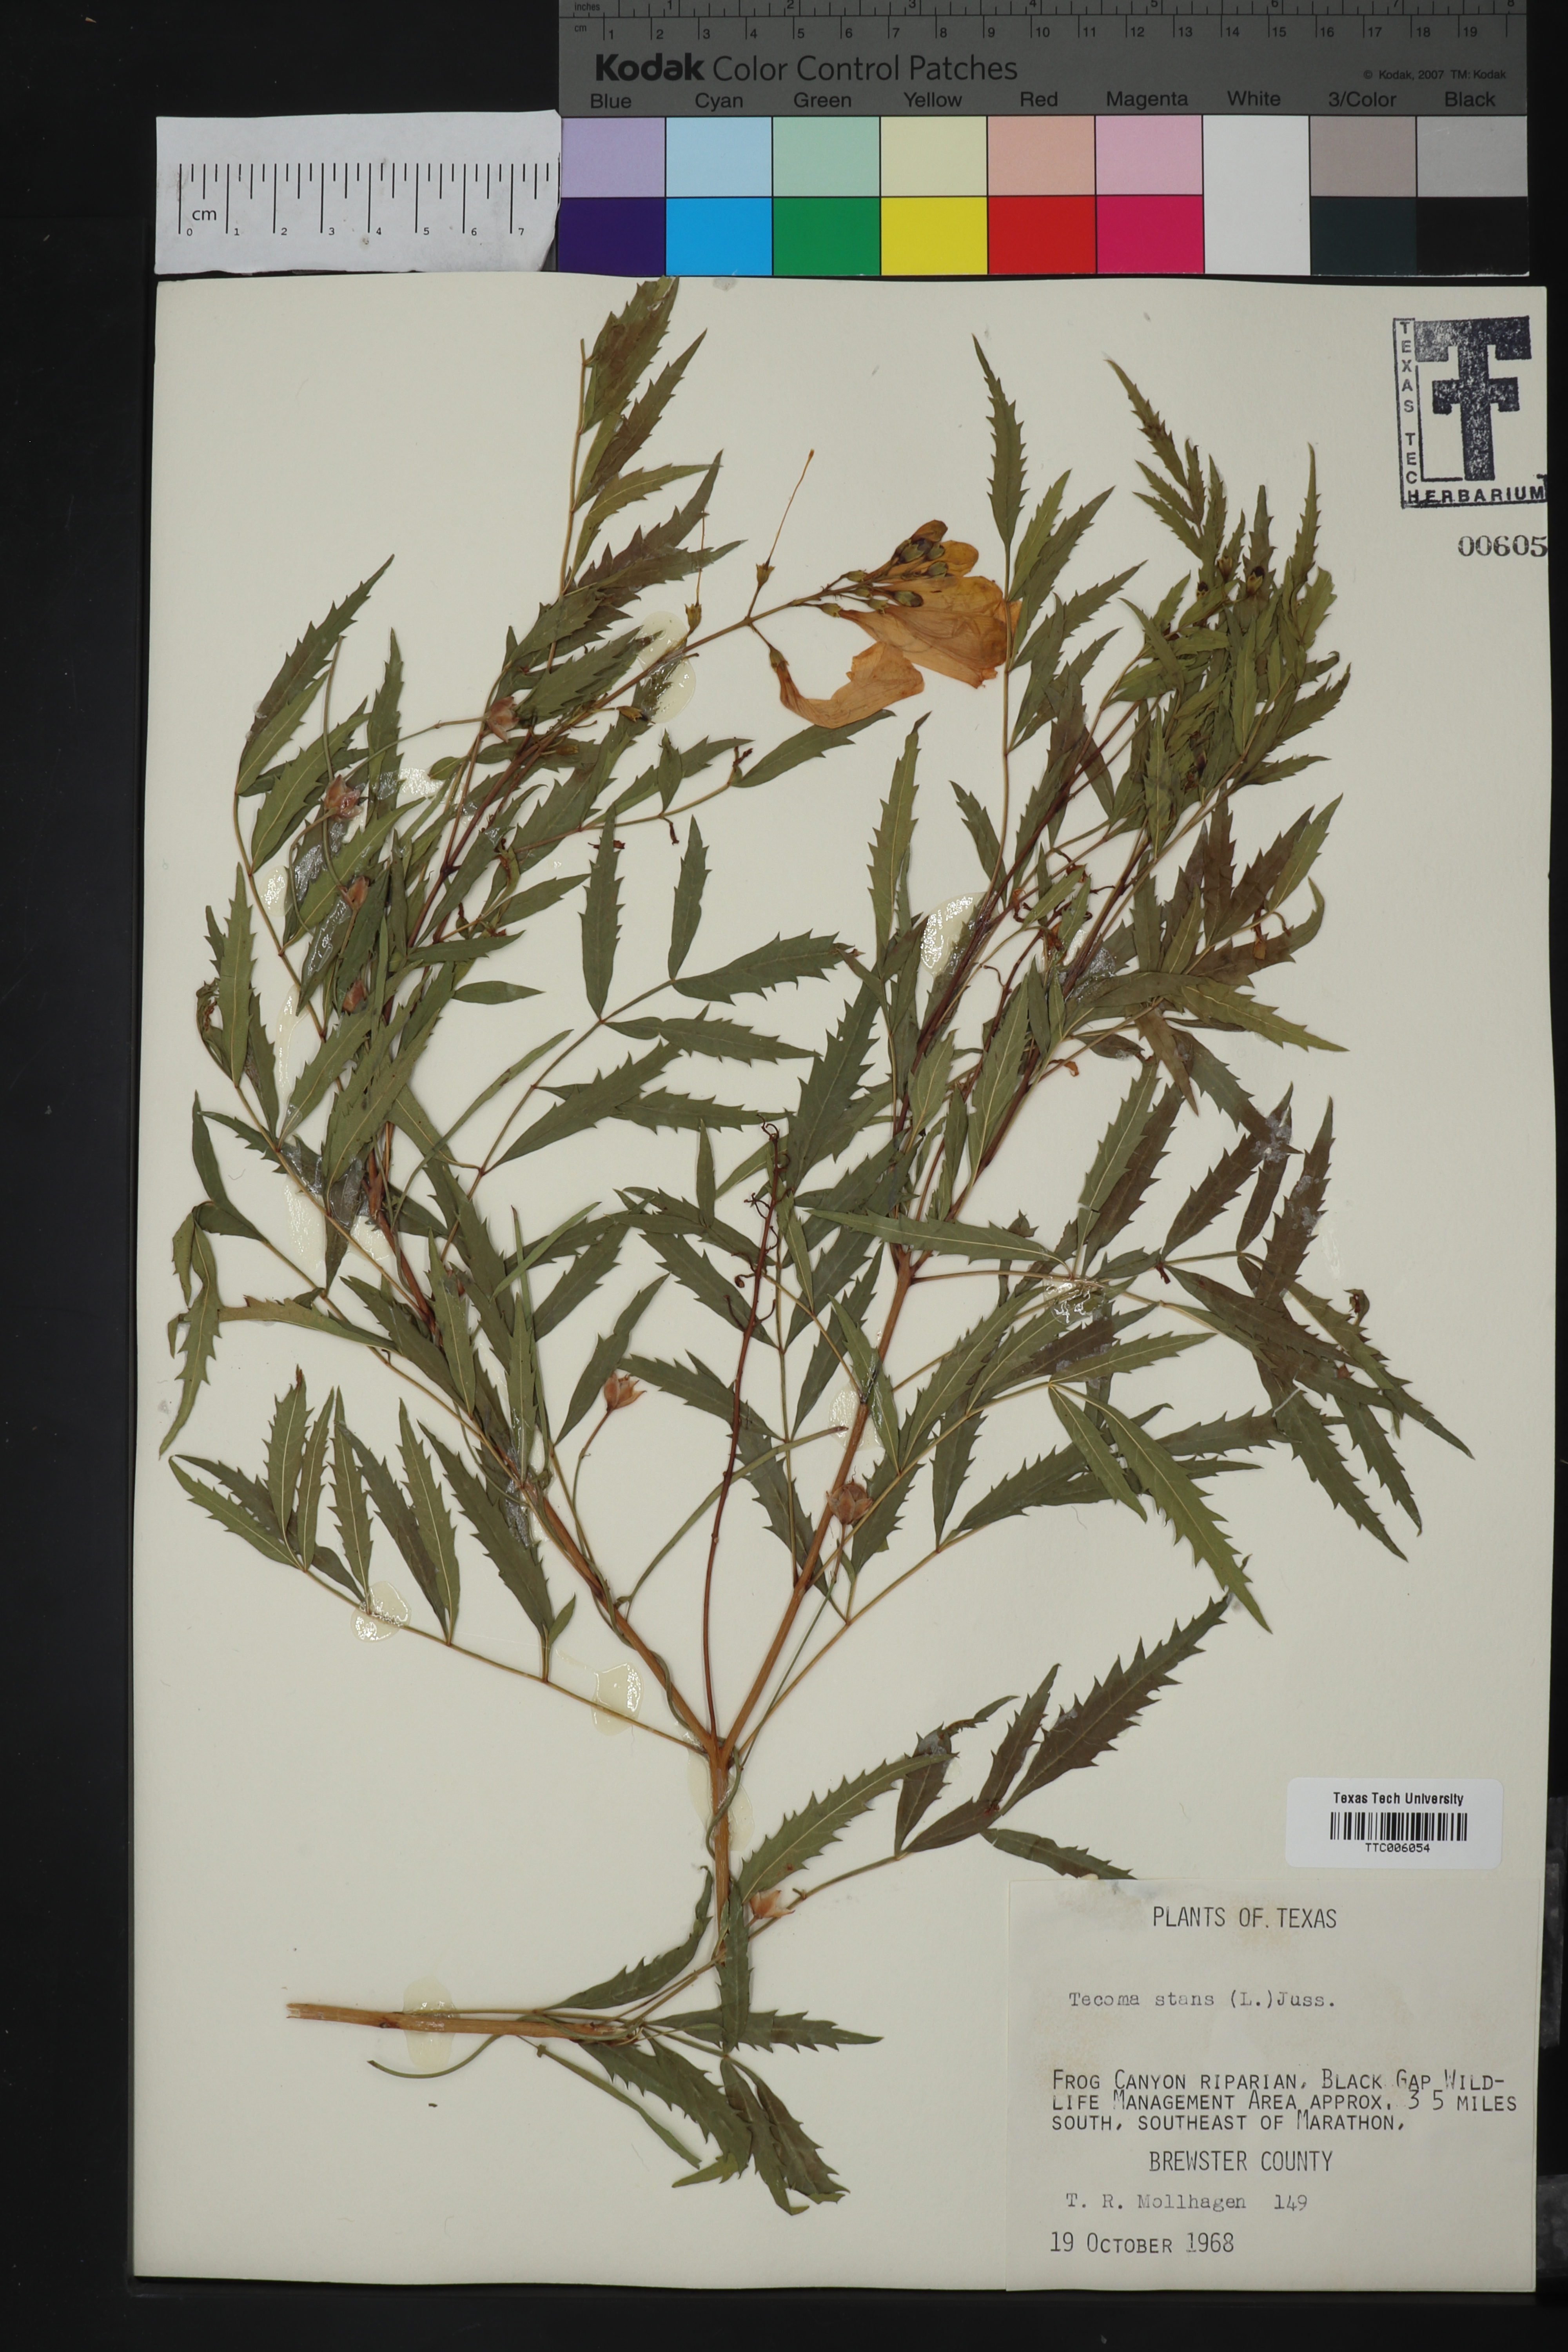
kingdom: Plantae
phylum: Tracheophyta
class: Magnoliopsida
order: Lamiales
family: Bignoniaceae
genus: Tecoma
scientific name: Tecoma stans
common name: Yellow trumpetbush
